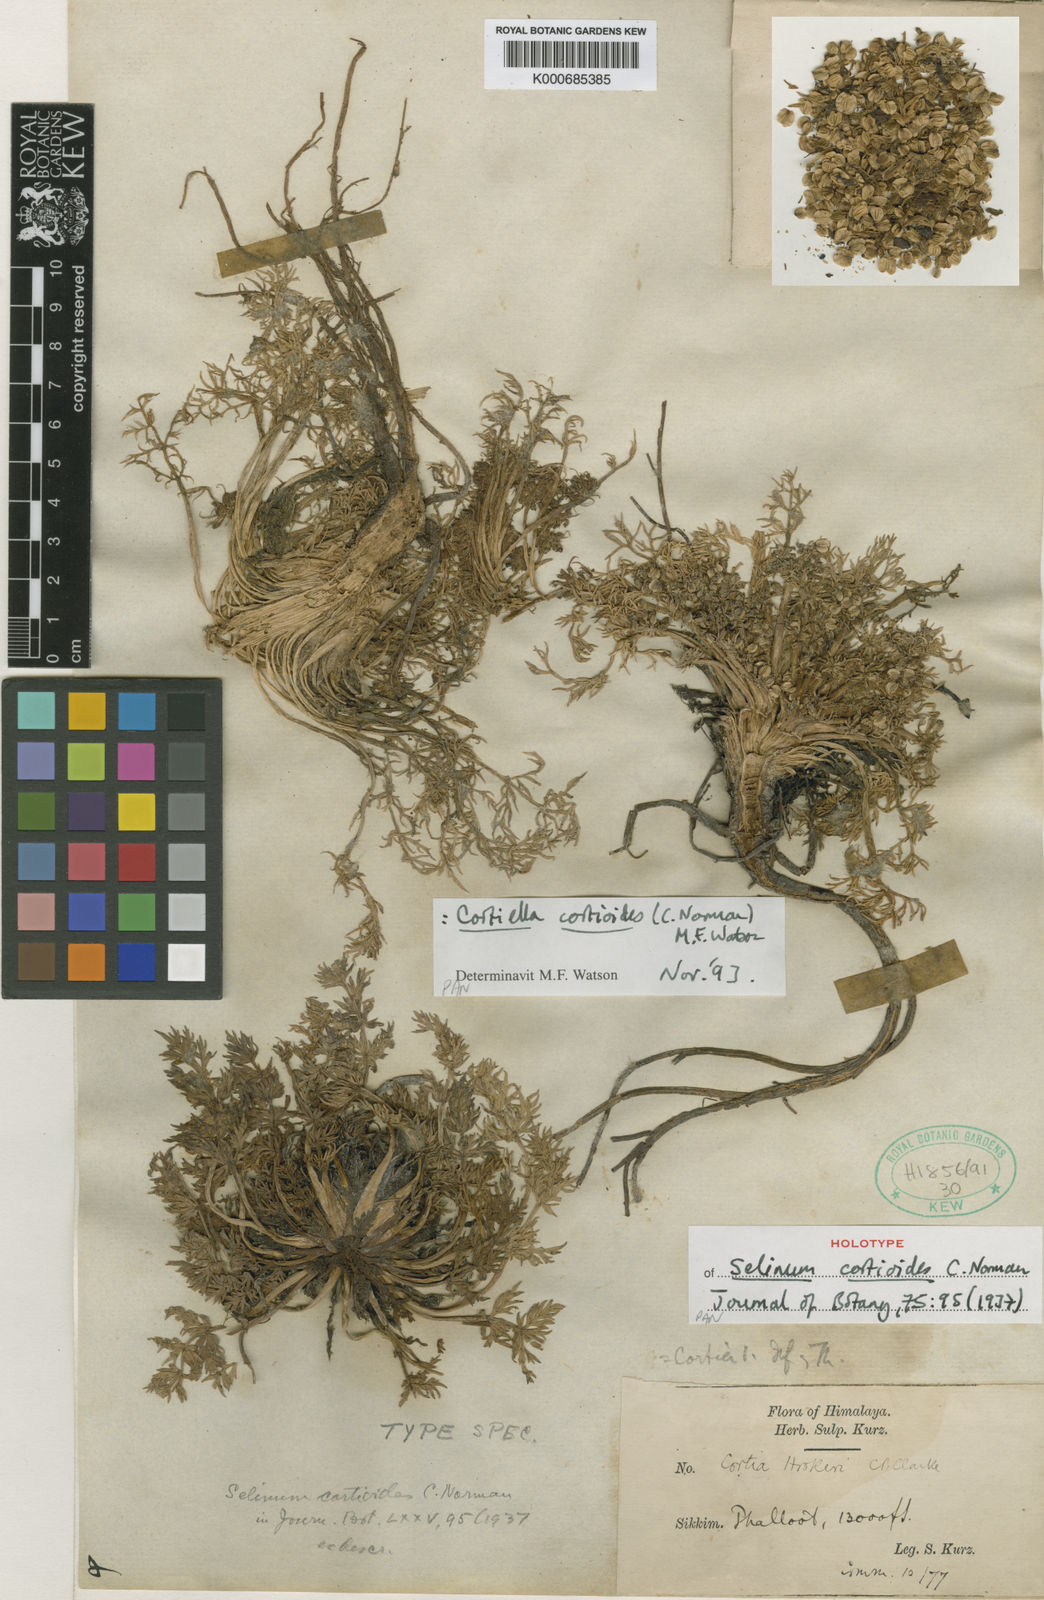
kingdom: Plantae
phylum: Tracheophyta
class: Magnoliopsida
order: Apiales
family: Apiaceae
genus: Cortiella
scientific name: Cortiella cortioides
